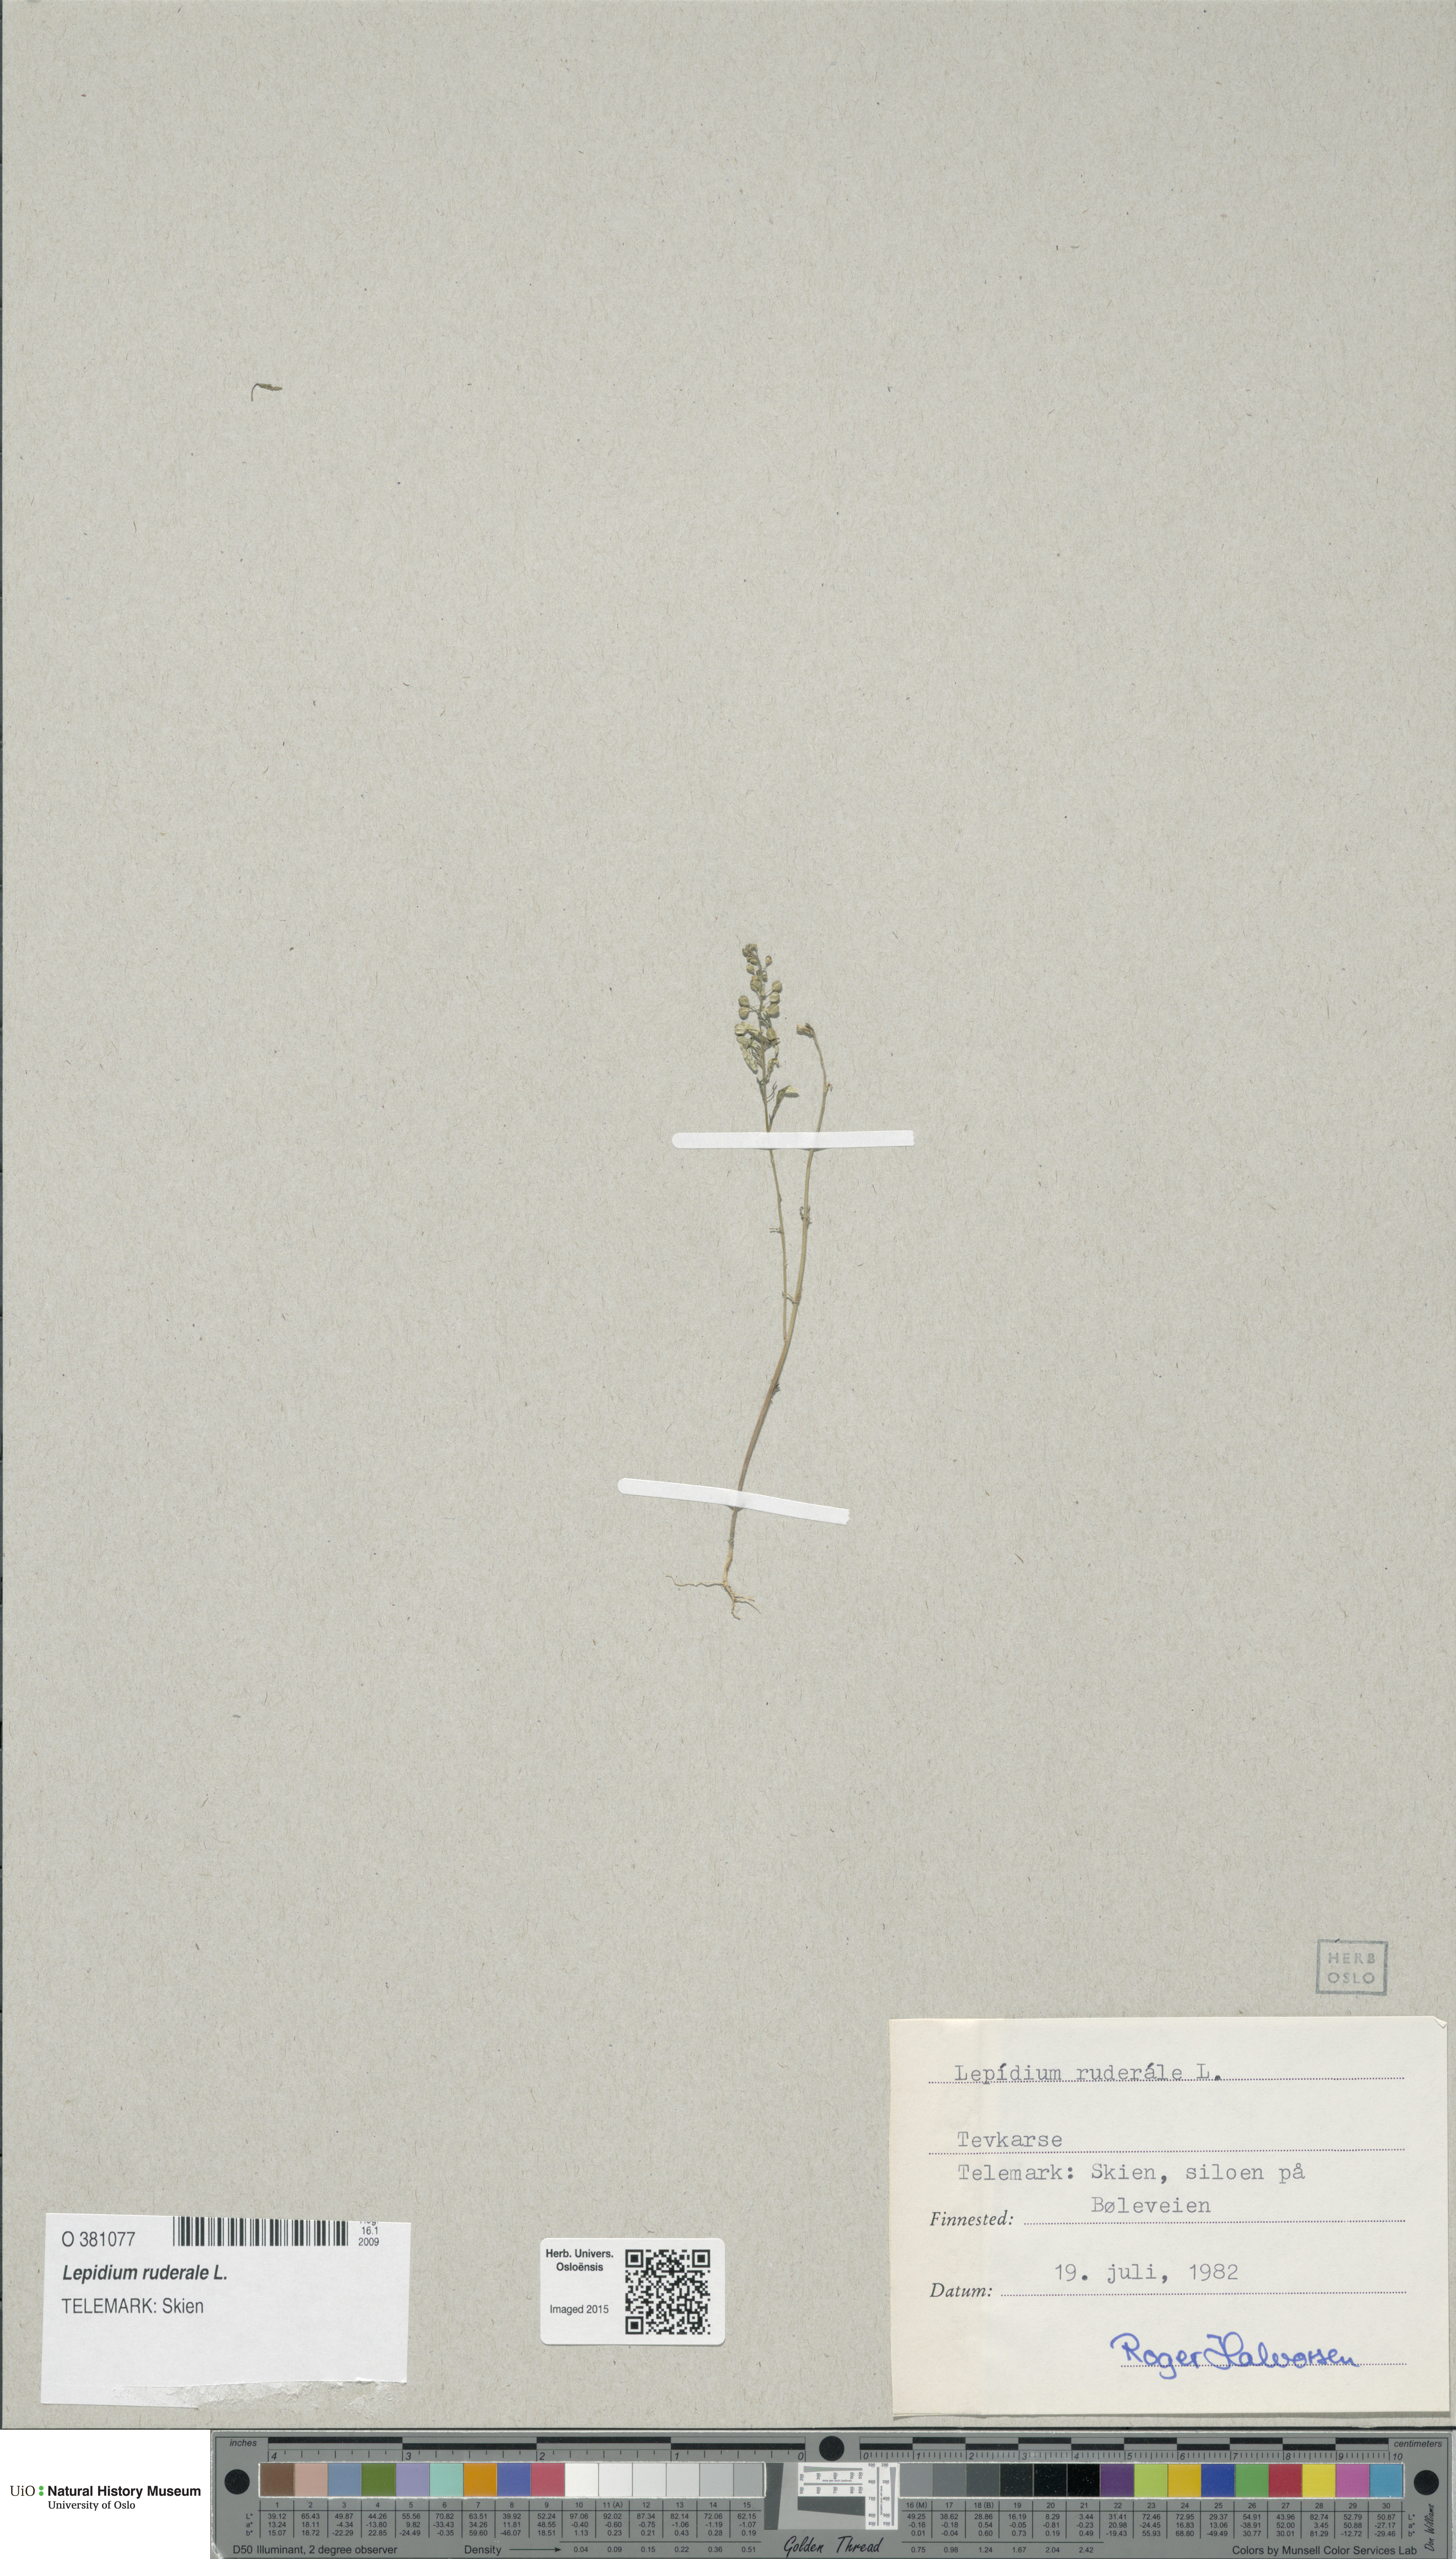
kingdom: Plantae
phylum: Tracheophyta
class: Magnoliopsida
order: Brassicales
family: Brassicaceae
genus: Lepidium
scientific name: Lepidium ruderale
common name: Narrow-leaved pepperwort
